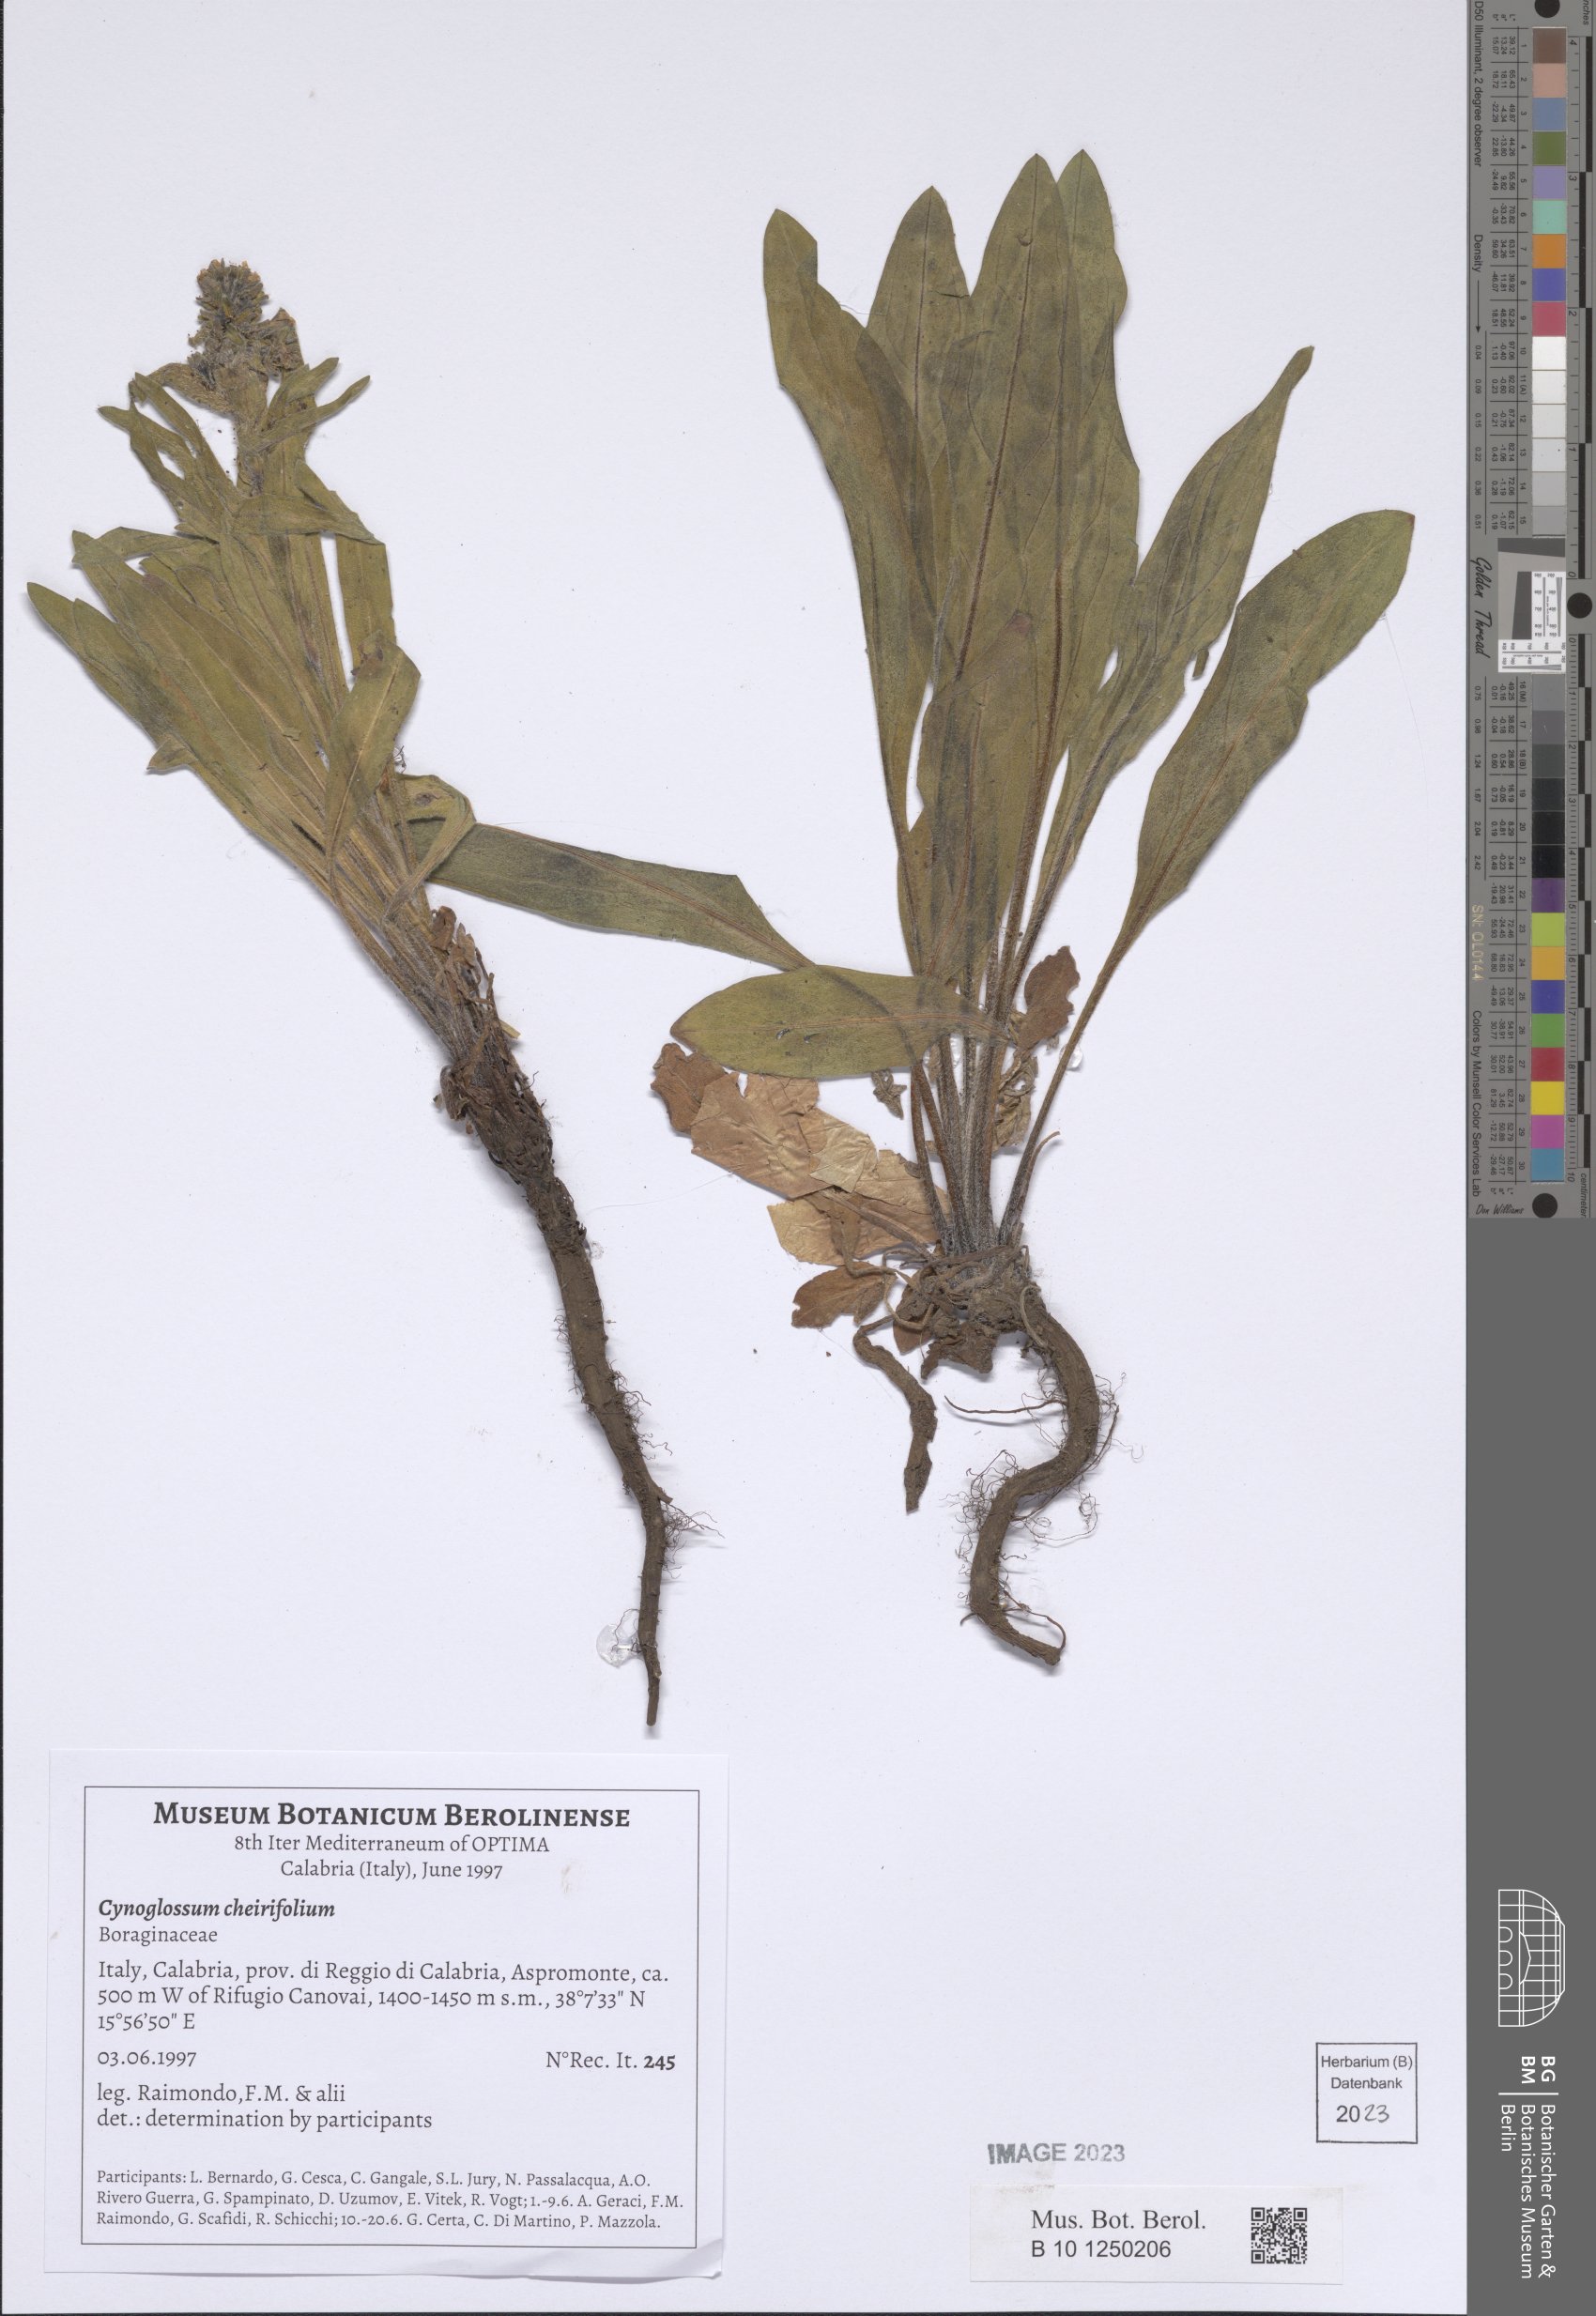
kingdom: Plantae
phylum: Tracheophyta
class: Magnoliopsida
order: Boraginales
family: Boraginaceae
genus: Pardoglossum
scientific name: Pardoglossum cheirifolium
